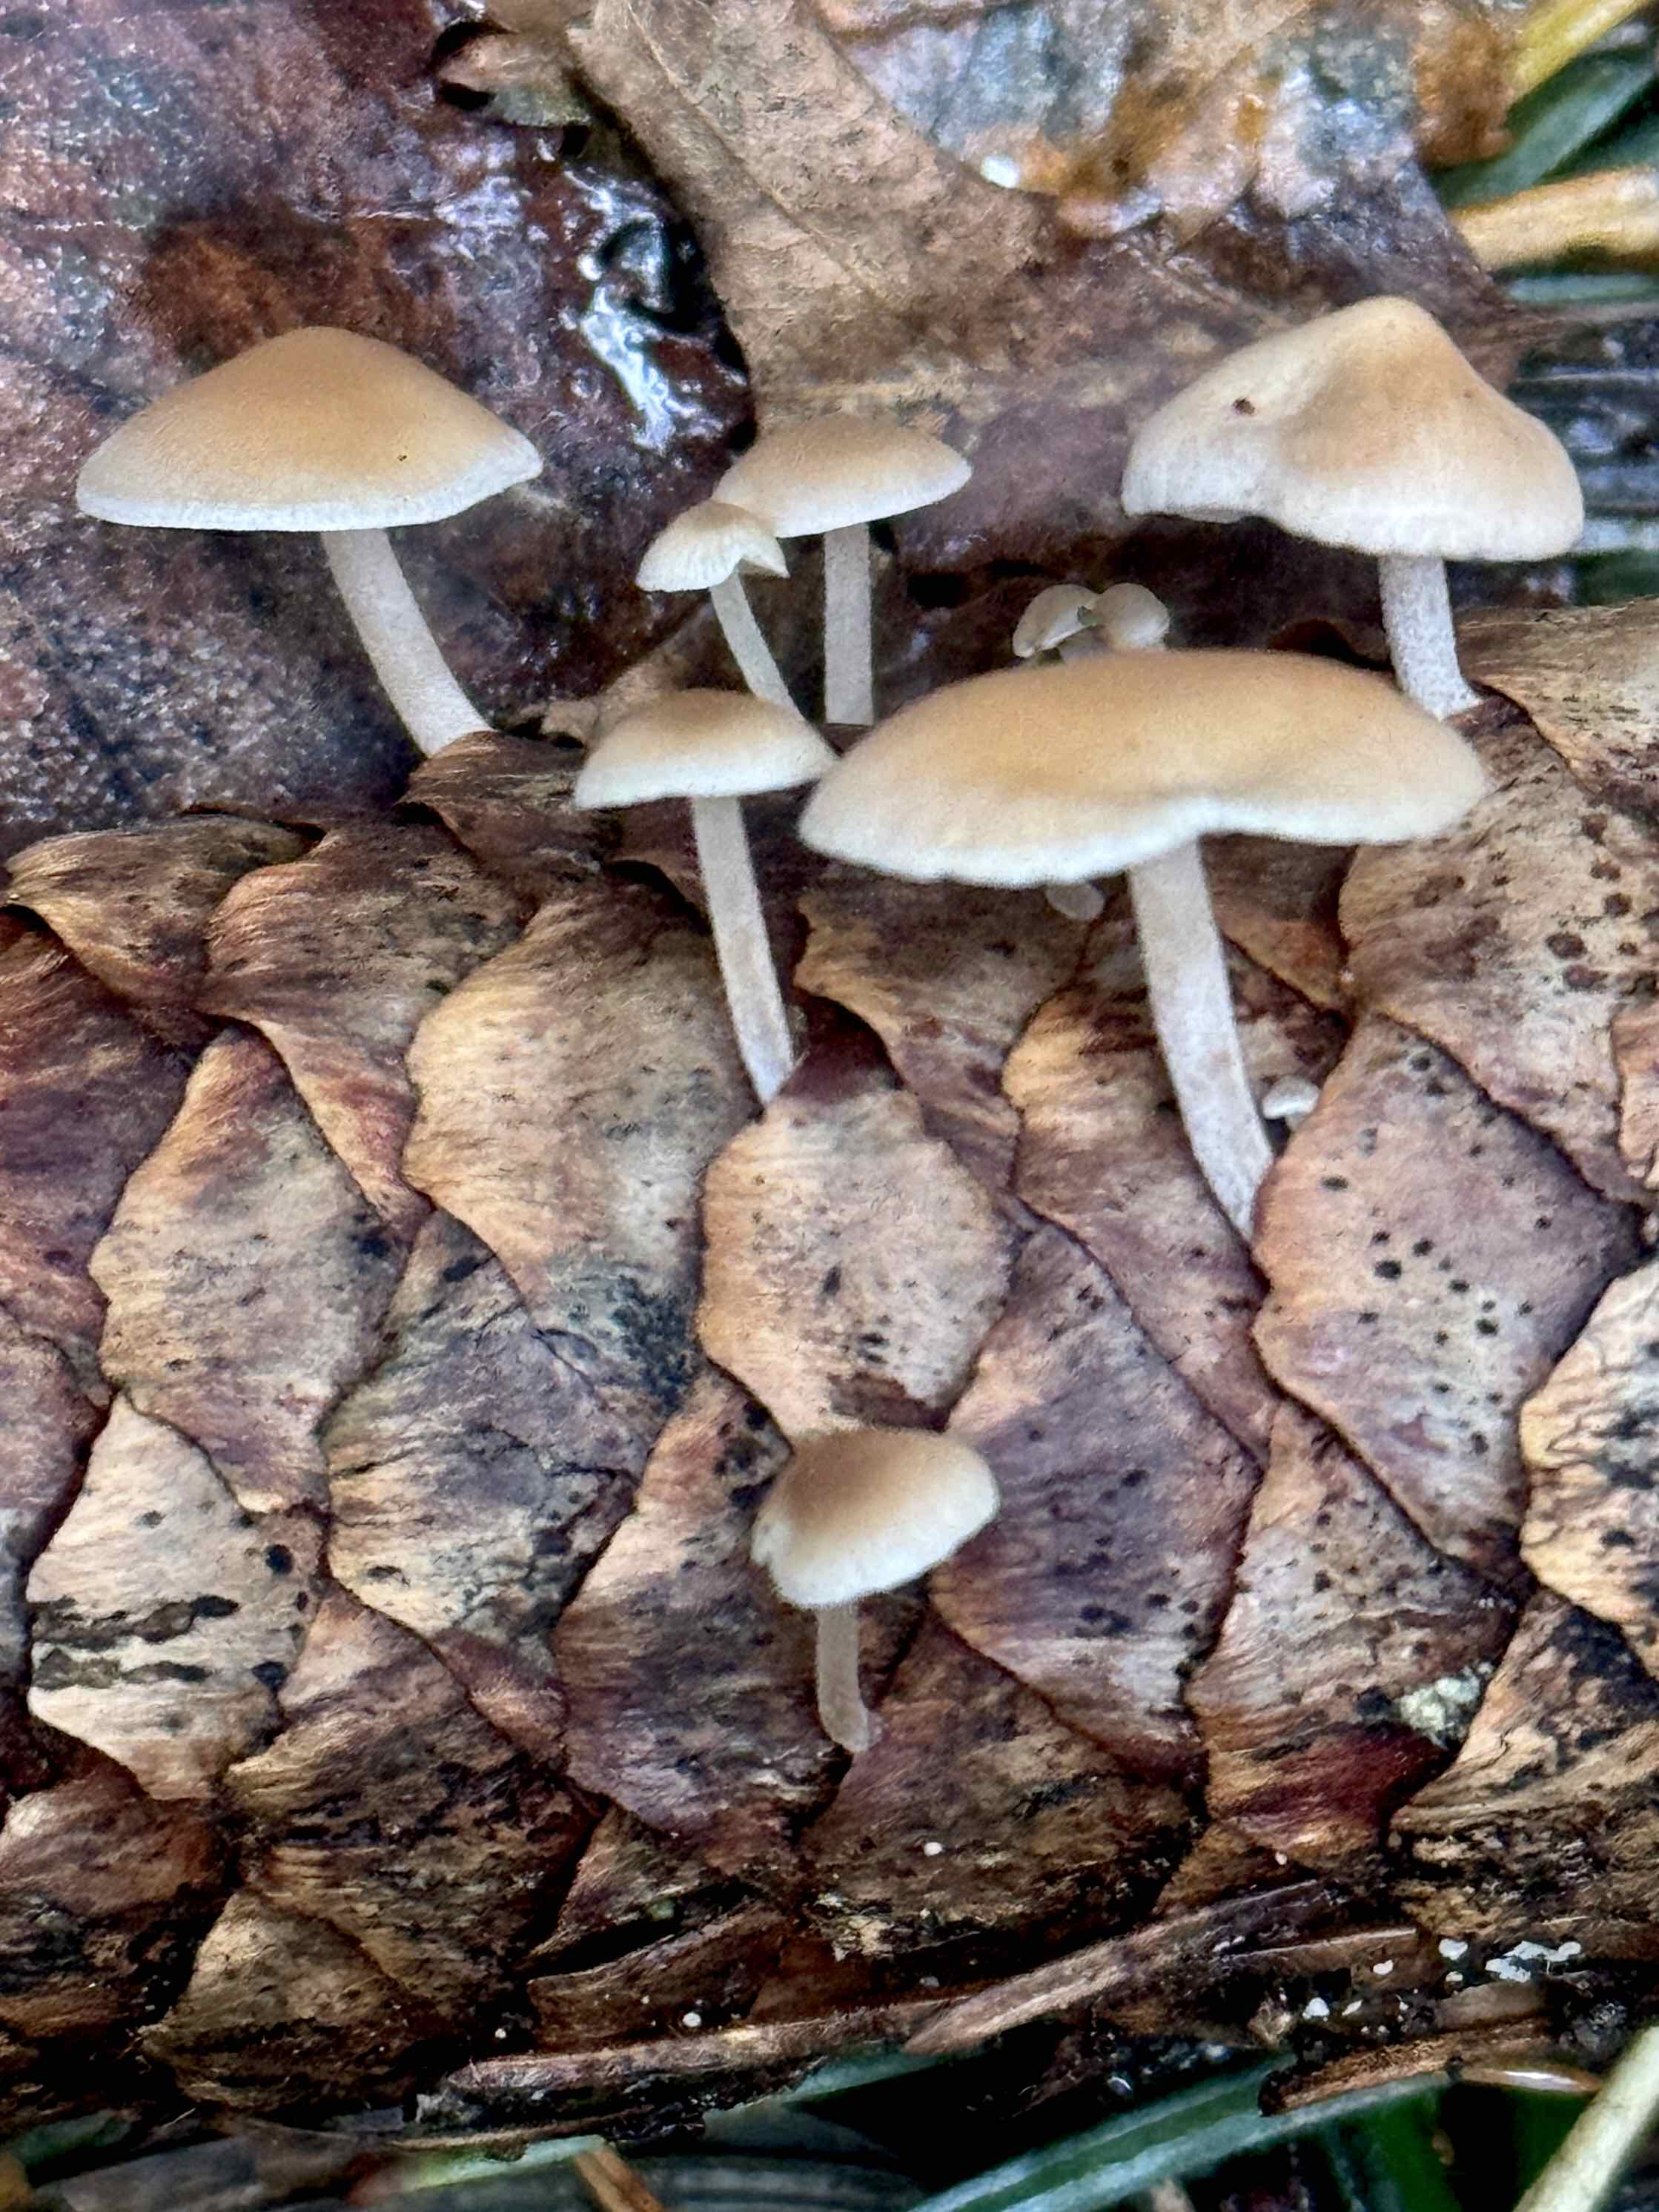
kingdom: Fungi
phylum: Basidiomycota
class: Agaricomycetes
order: Agaricales
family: Marasmiaceae
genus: Baeospora
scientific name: Baeospora myosura
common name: koglebruskhat
